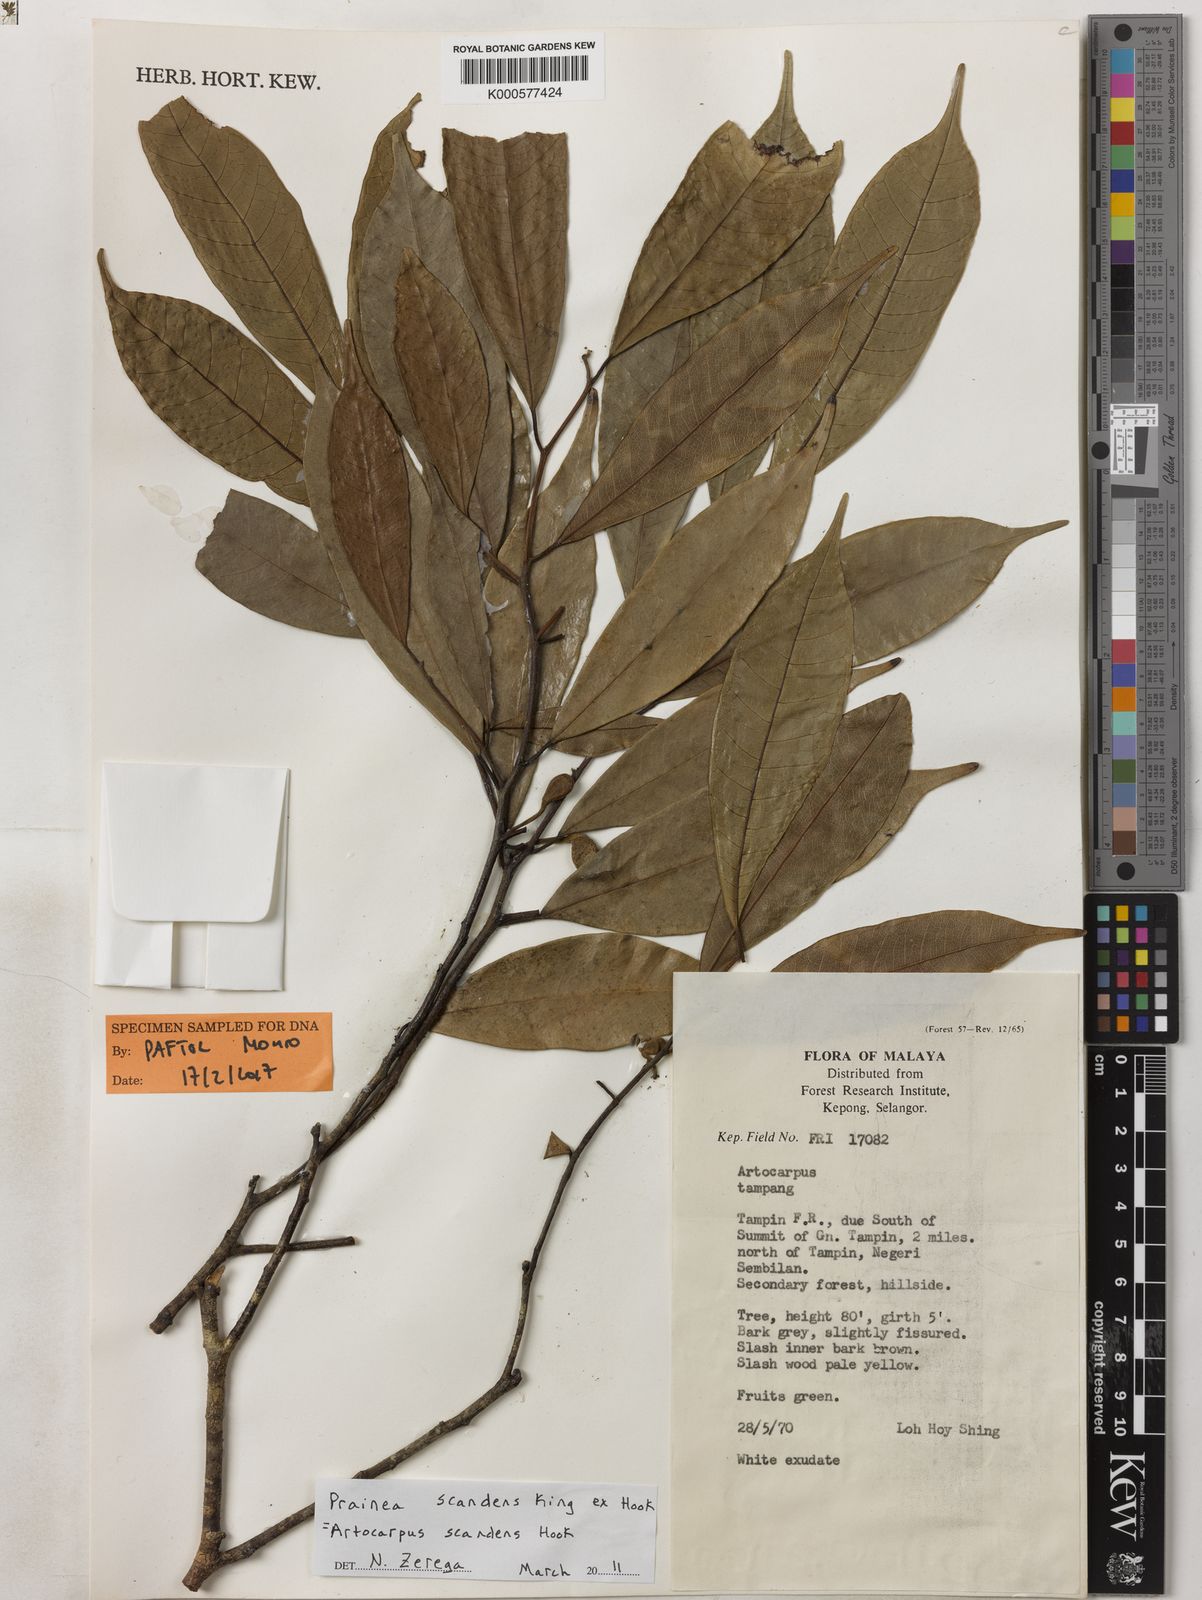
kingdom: Plantae
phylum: Tracheophyta
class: Magnoliopsida
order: Rosales
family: Moraceae
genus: Prainea
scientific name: Prainea
